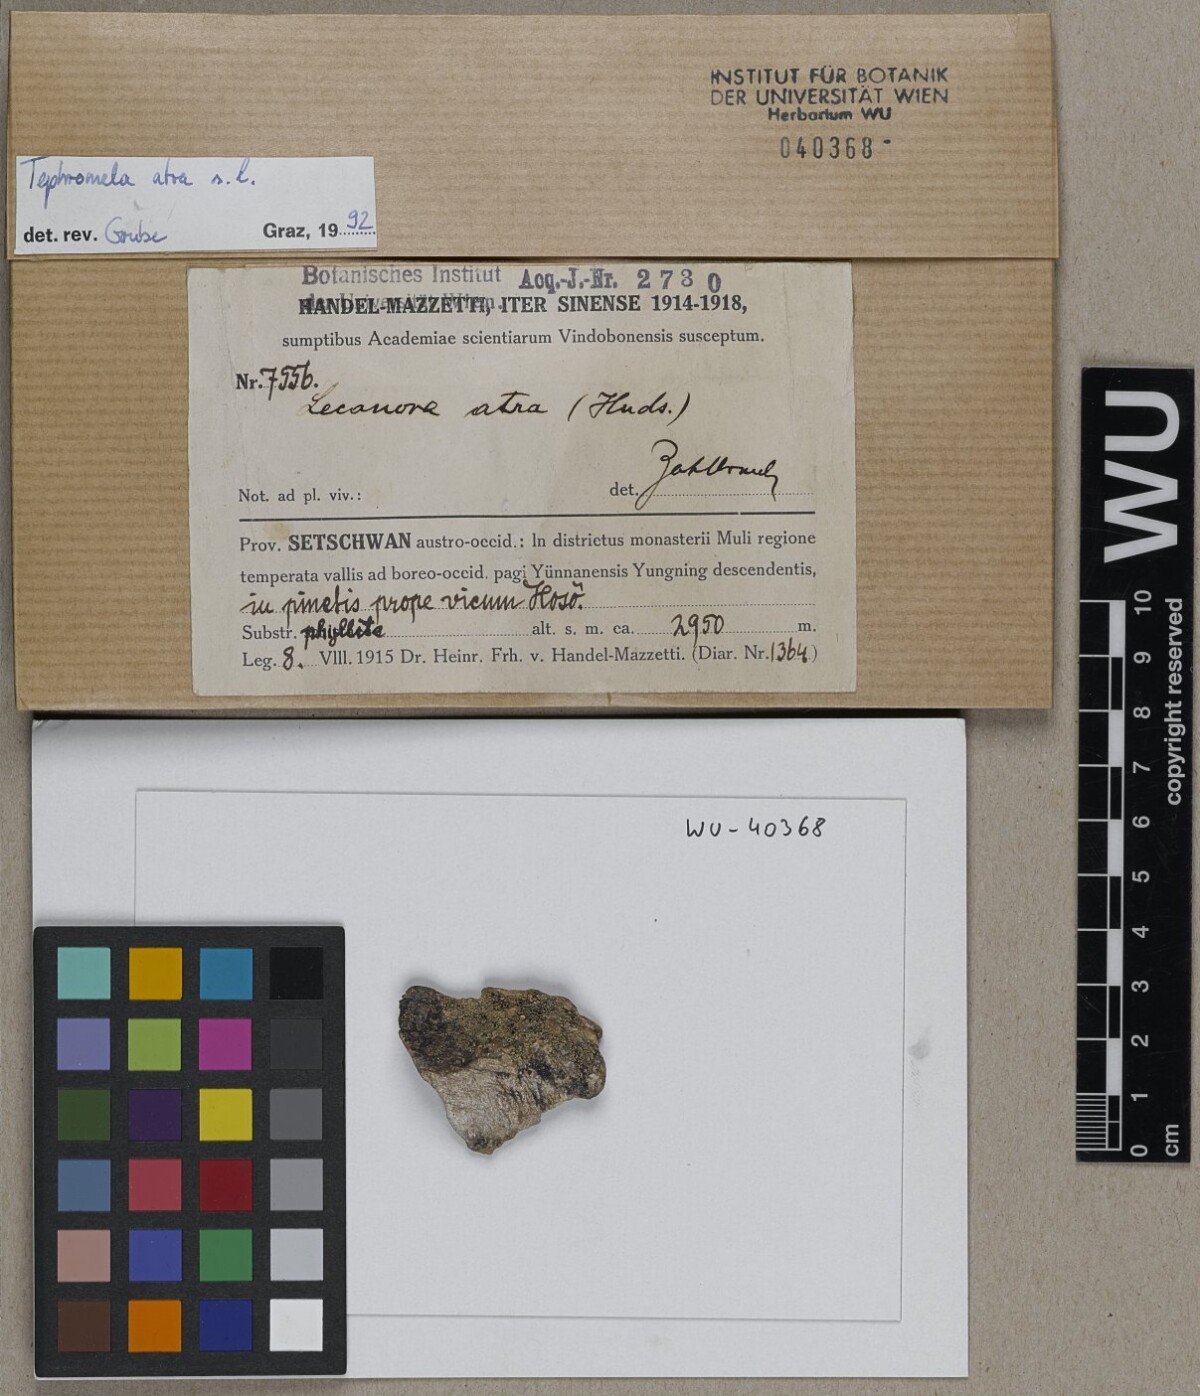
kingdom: Fungi
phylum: Ascomycota
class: Lecanoromycetes
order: Lecanorales
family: Tephromelataceae
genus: Tephromela
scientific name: Tephromela atra
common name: Black shields
